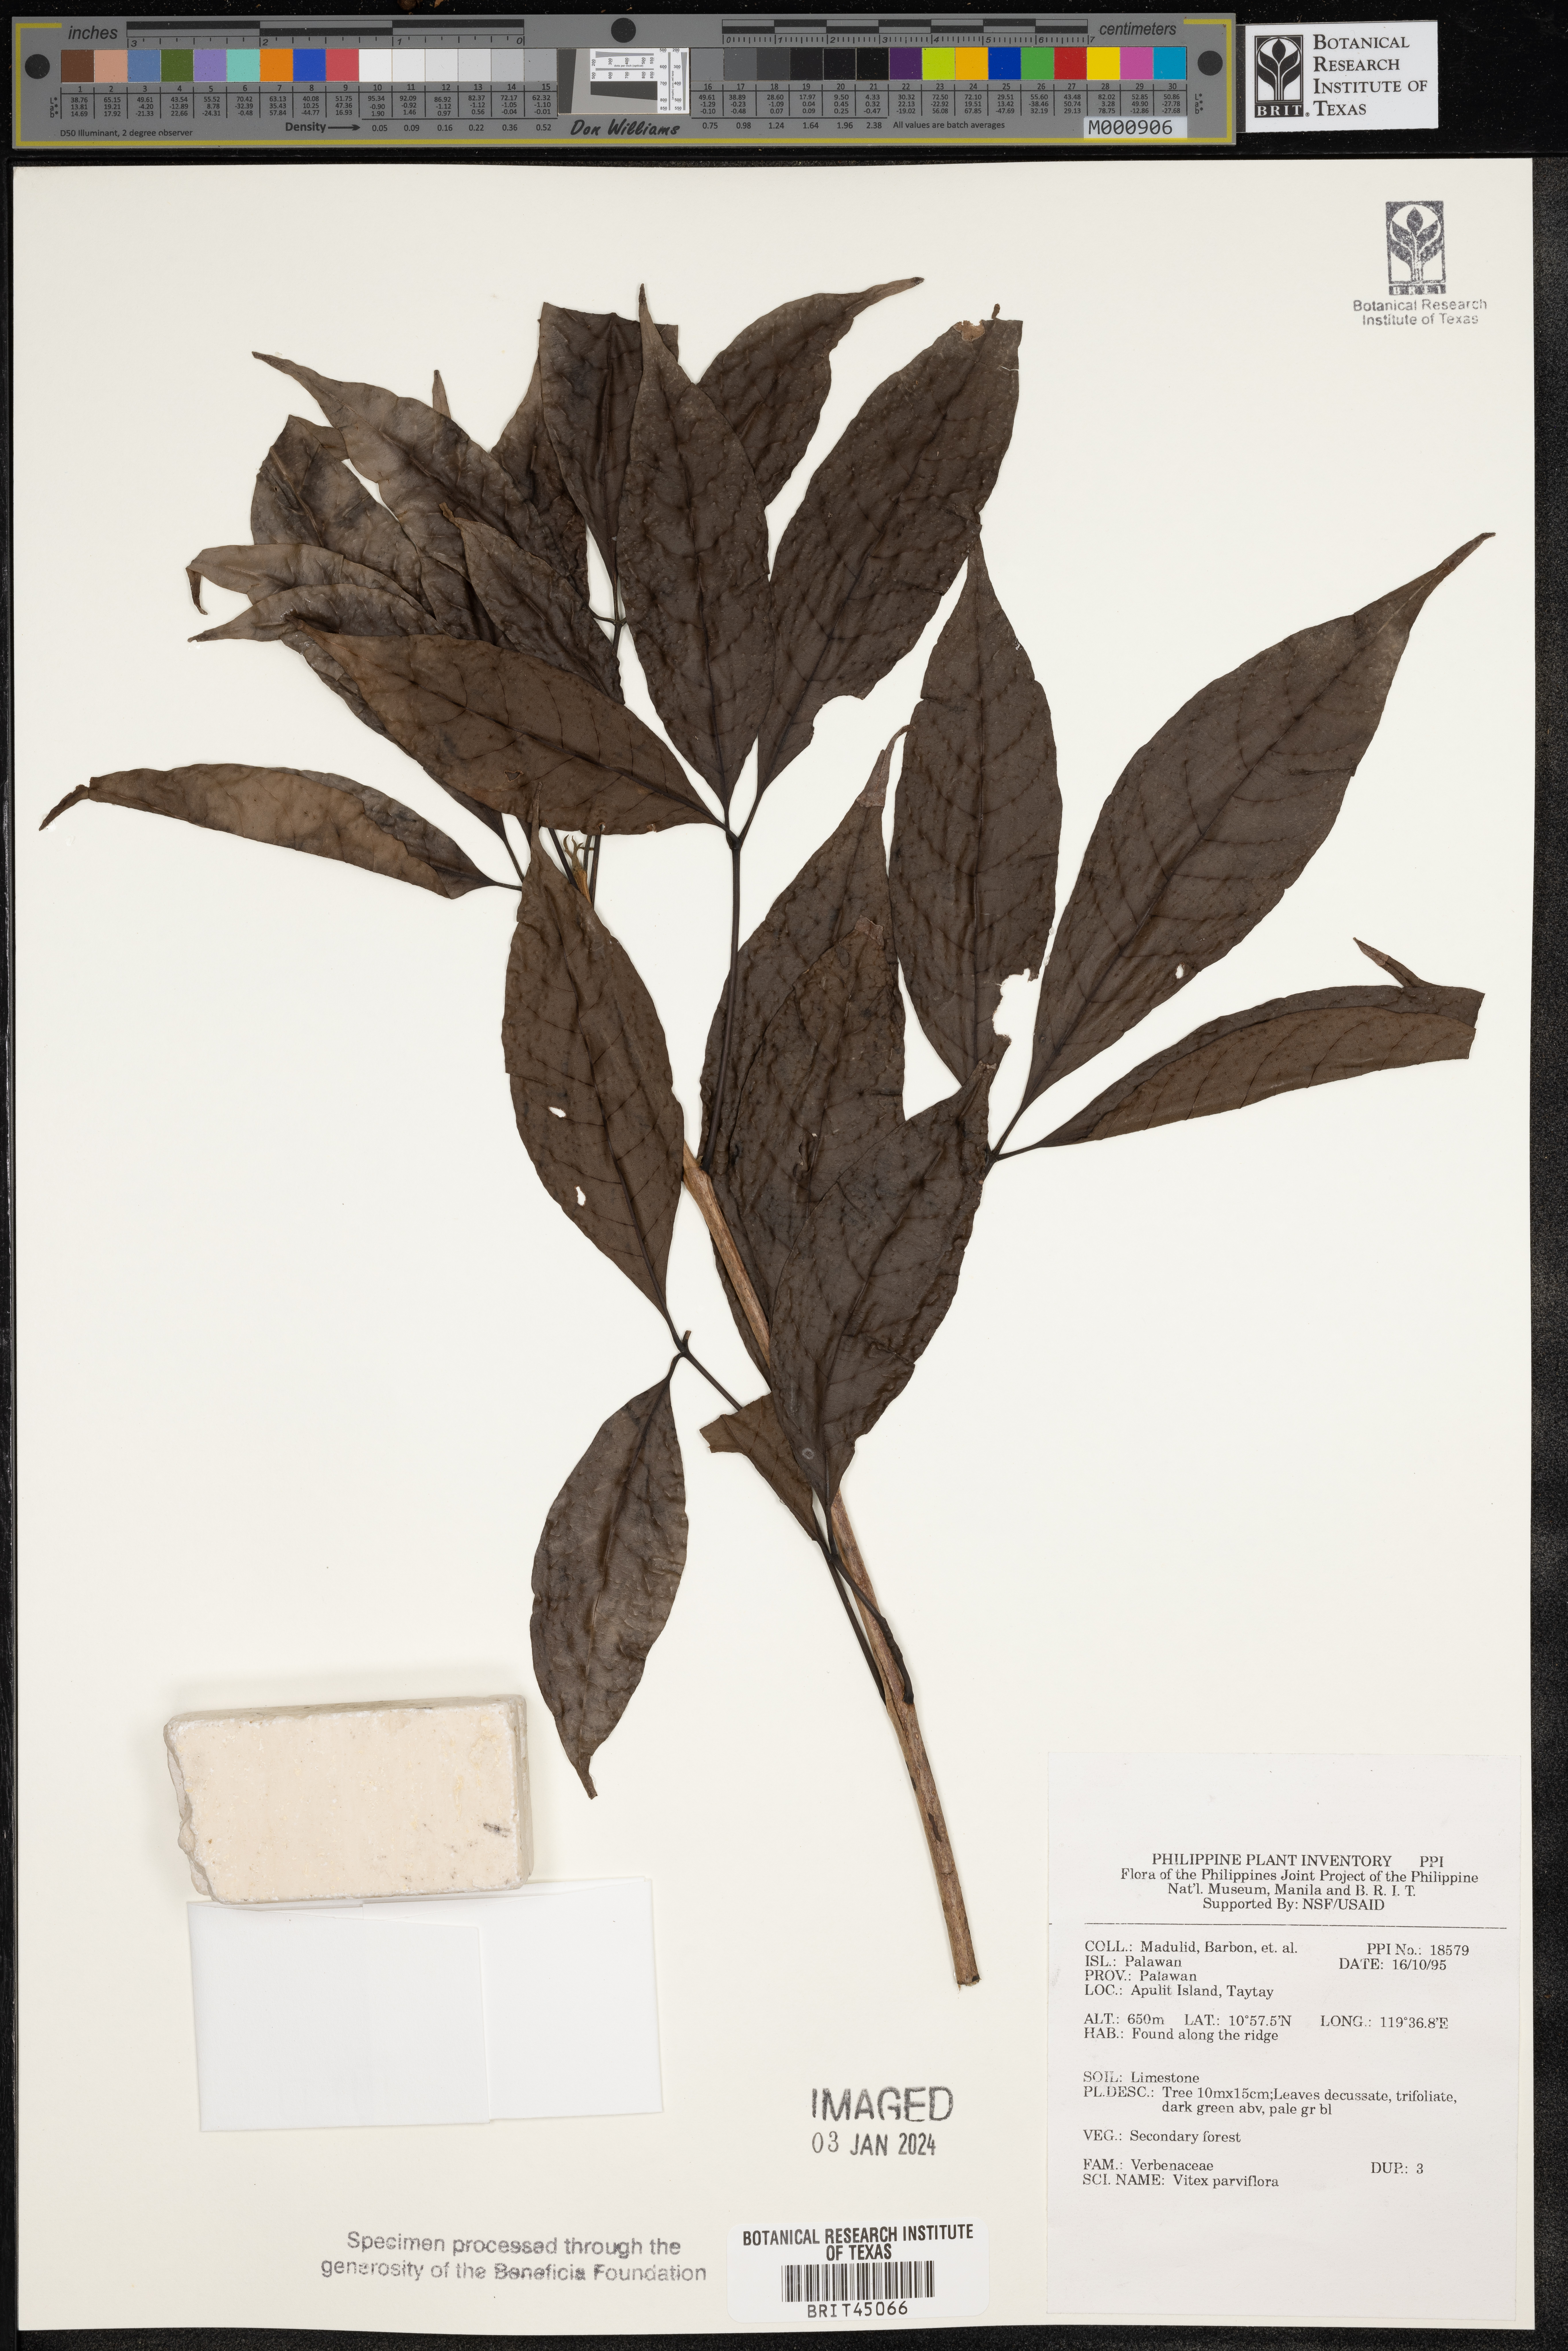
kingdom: Plantae
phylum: Tracheophyta
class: Magnoliopsida
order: Lamiales
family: Lamiaceae
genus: Vitex
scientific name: Vitex parviflora
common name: Smallflower chastetree
